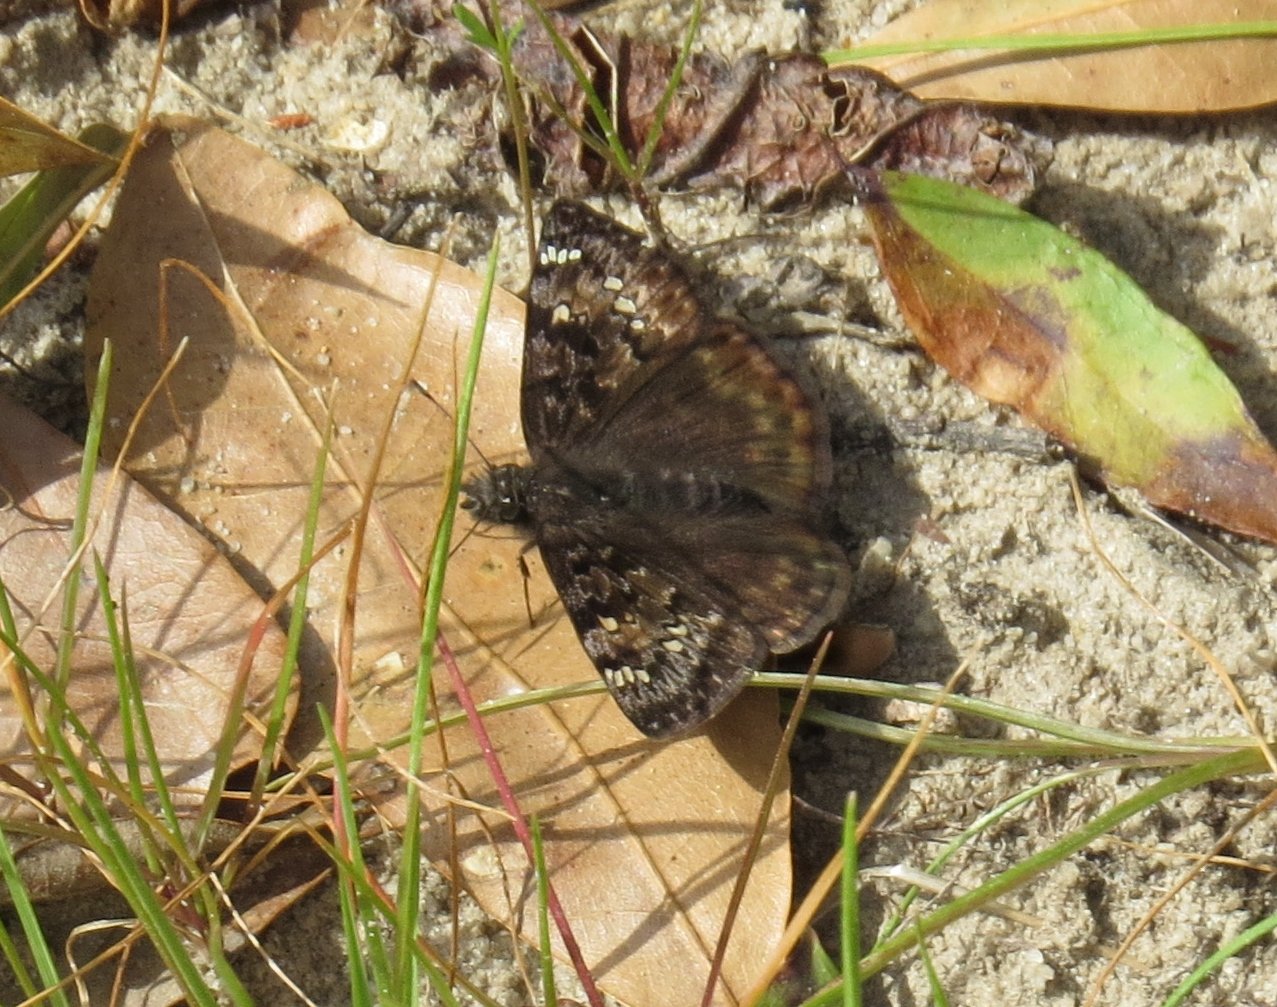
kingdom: Animalia
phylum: Arthropoda
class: Insecta
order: Lepidoptera
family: Hesperiidae
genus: Gesta
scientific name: Gesta
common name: Juvenal's Duskywing
